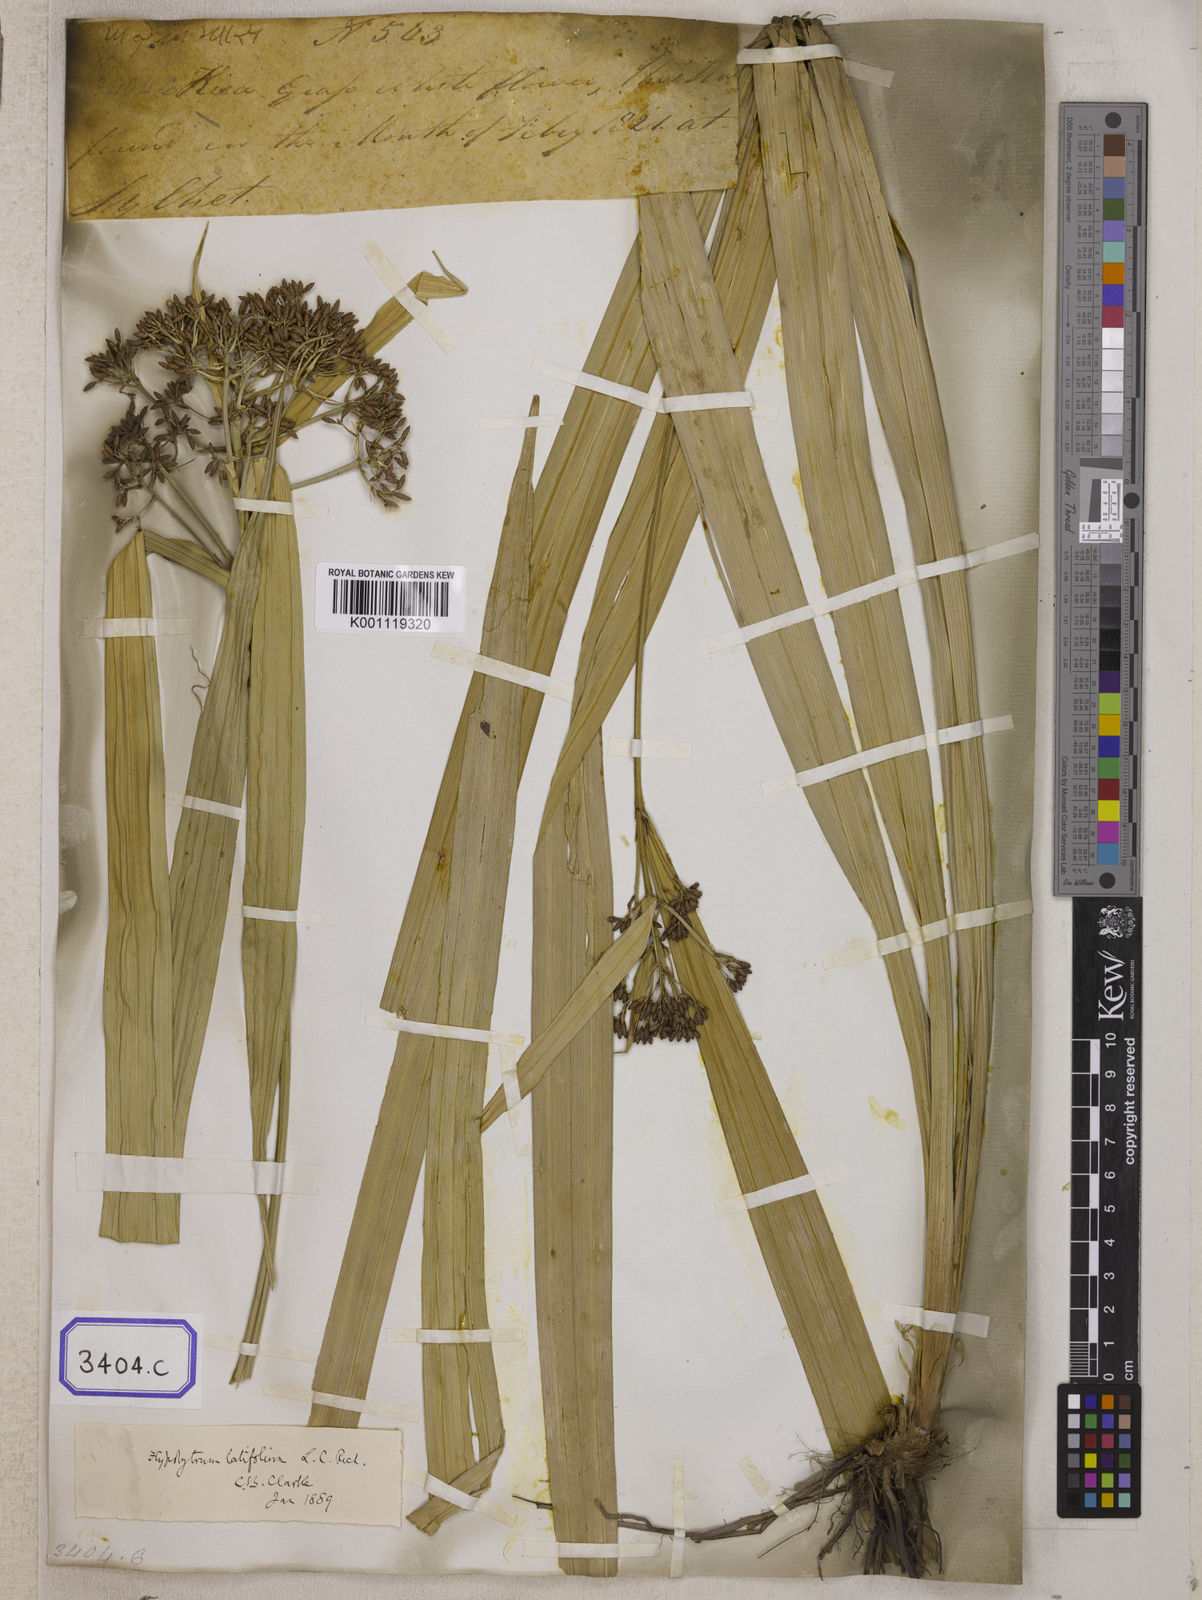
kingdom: Plantae
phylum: Tracheophyta
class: Liliopsida
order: Poales
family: Cyperaceae
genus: Hypolytrum
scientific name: Hypolytrum
